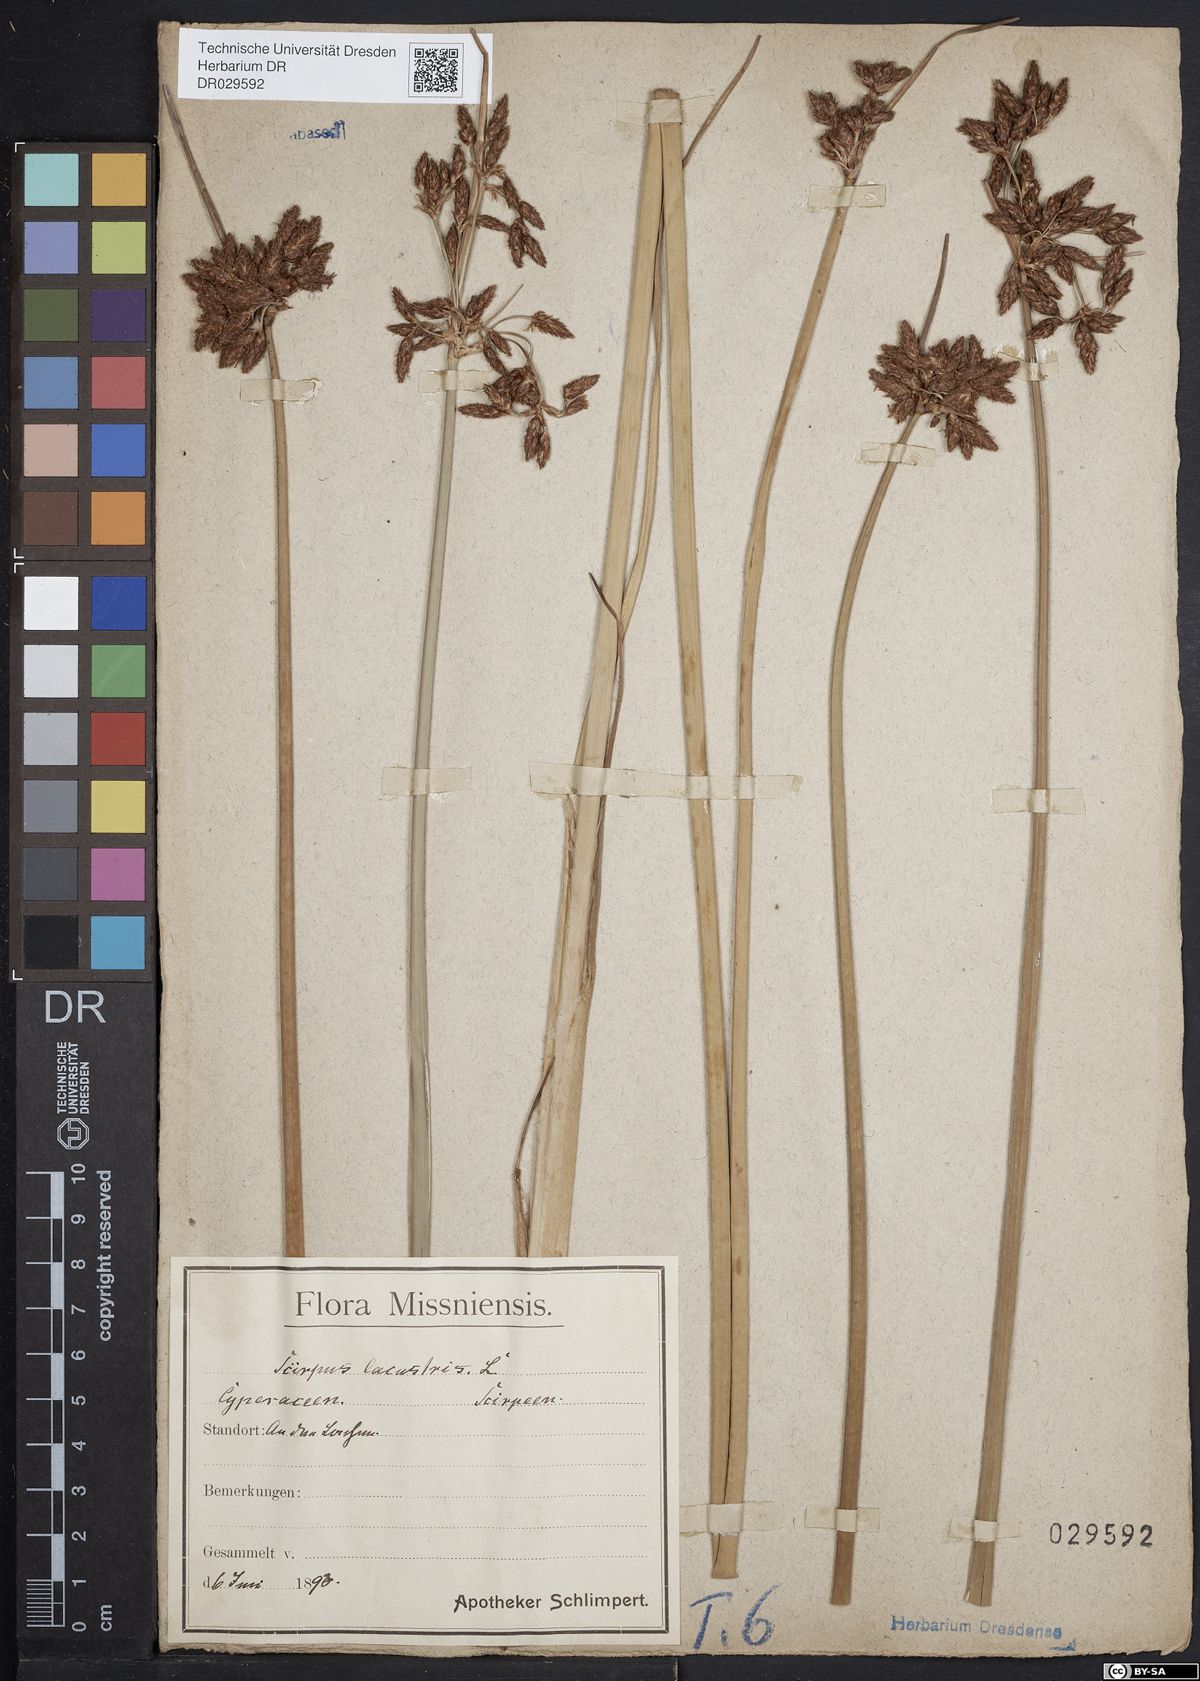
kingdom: Plantae
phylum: Tracheophyta
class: Liliopsida
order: Poales
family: Cyperaceae
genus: Schoenoplectus
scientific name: Schoenoplectus lacustris
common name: Common club-rush
